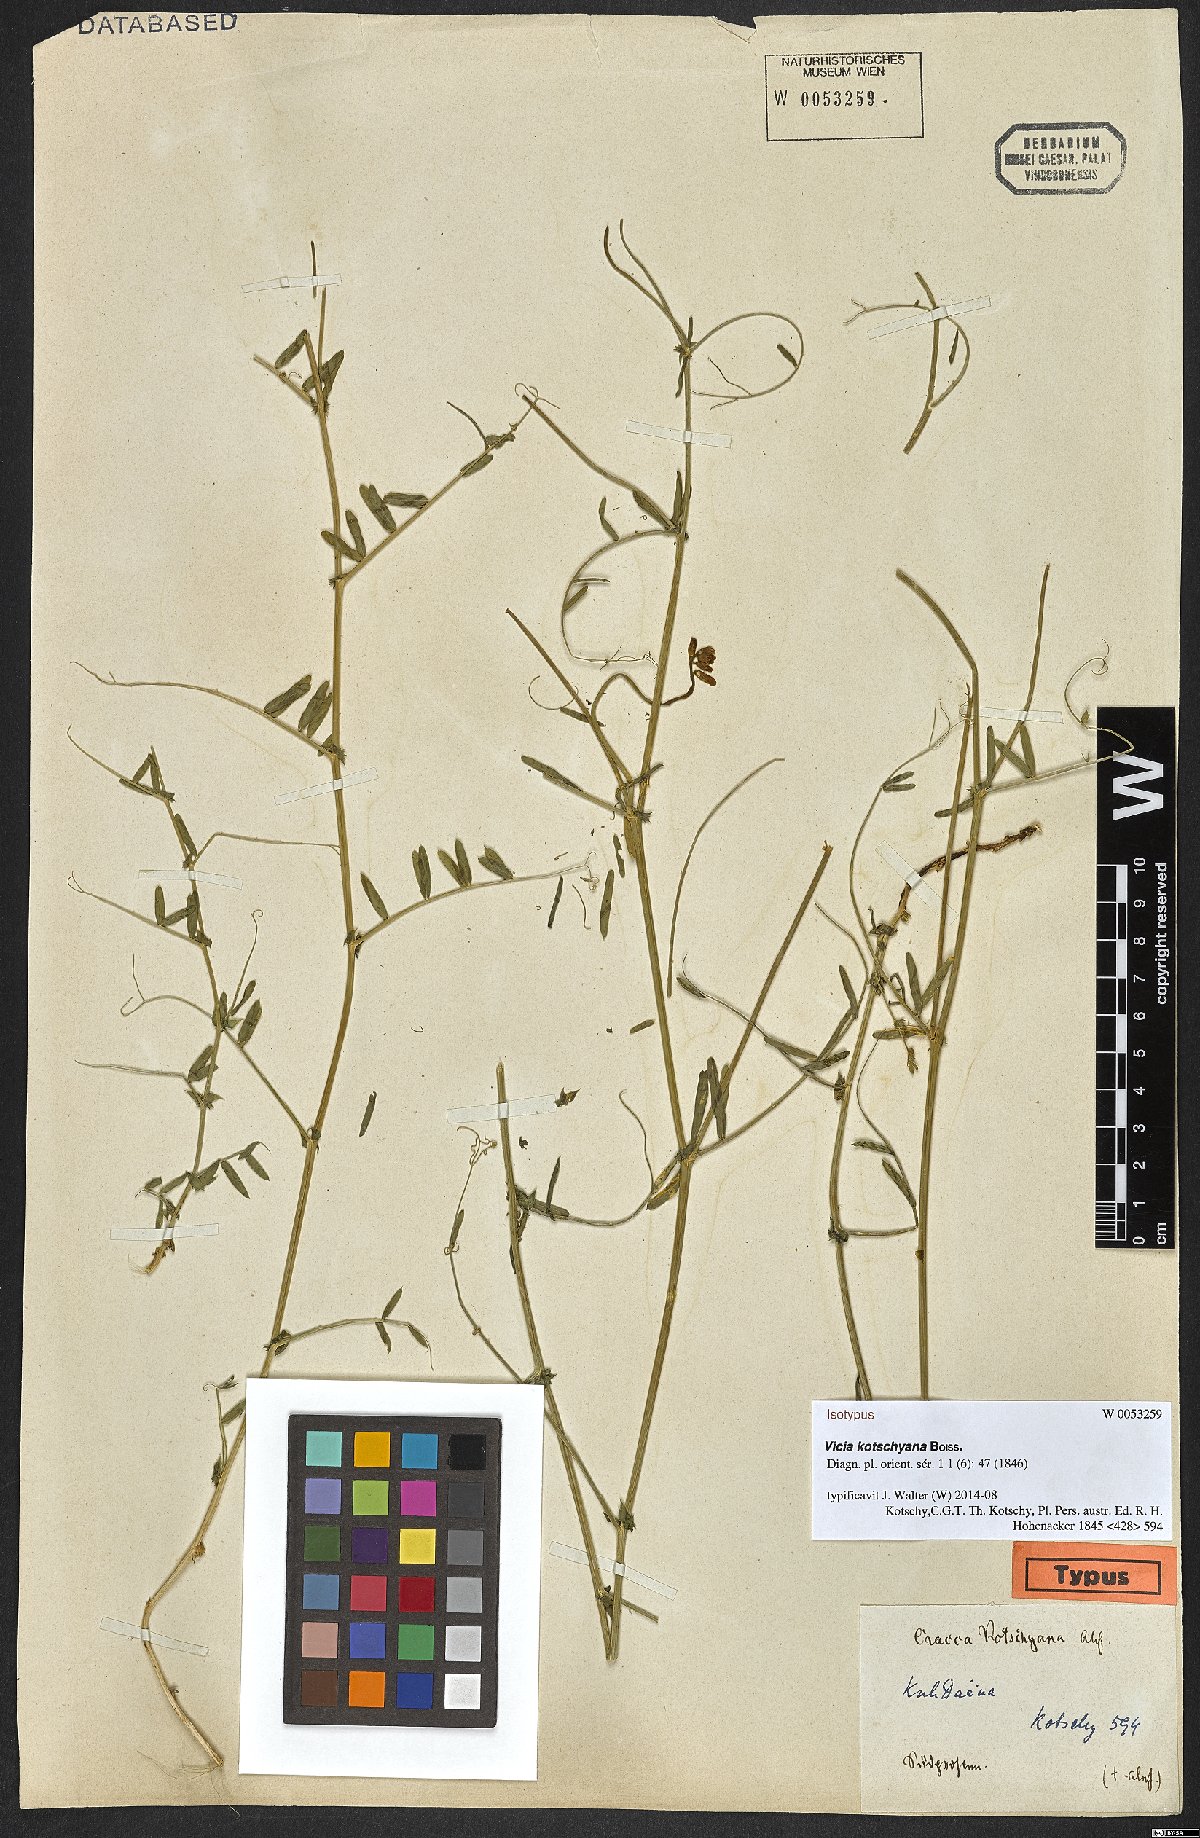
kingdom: Plantae
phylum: Tracheophyta
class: Magnoliopsida
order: Fabales
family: Fabaceae
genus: Vicia
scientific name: Vicia kotschyana
